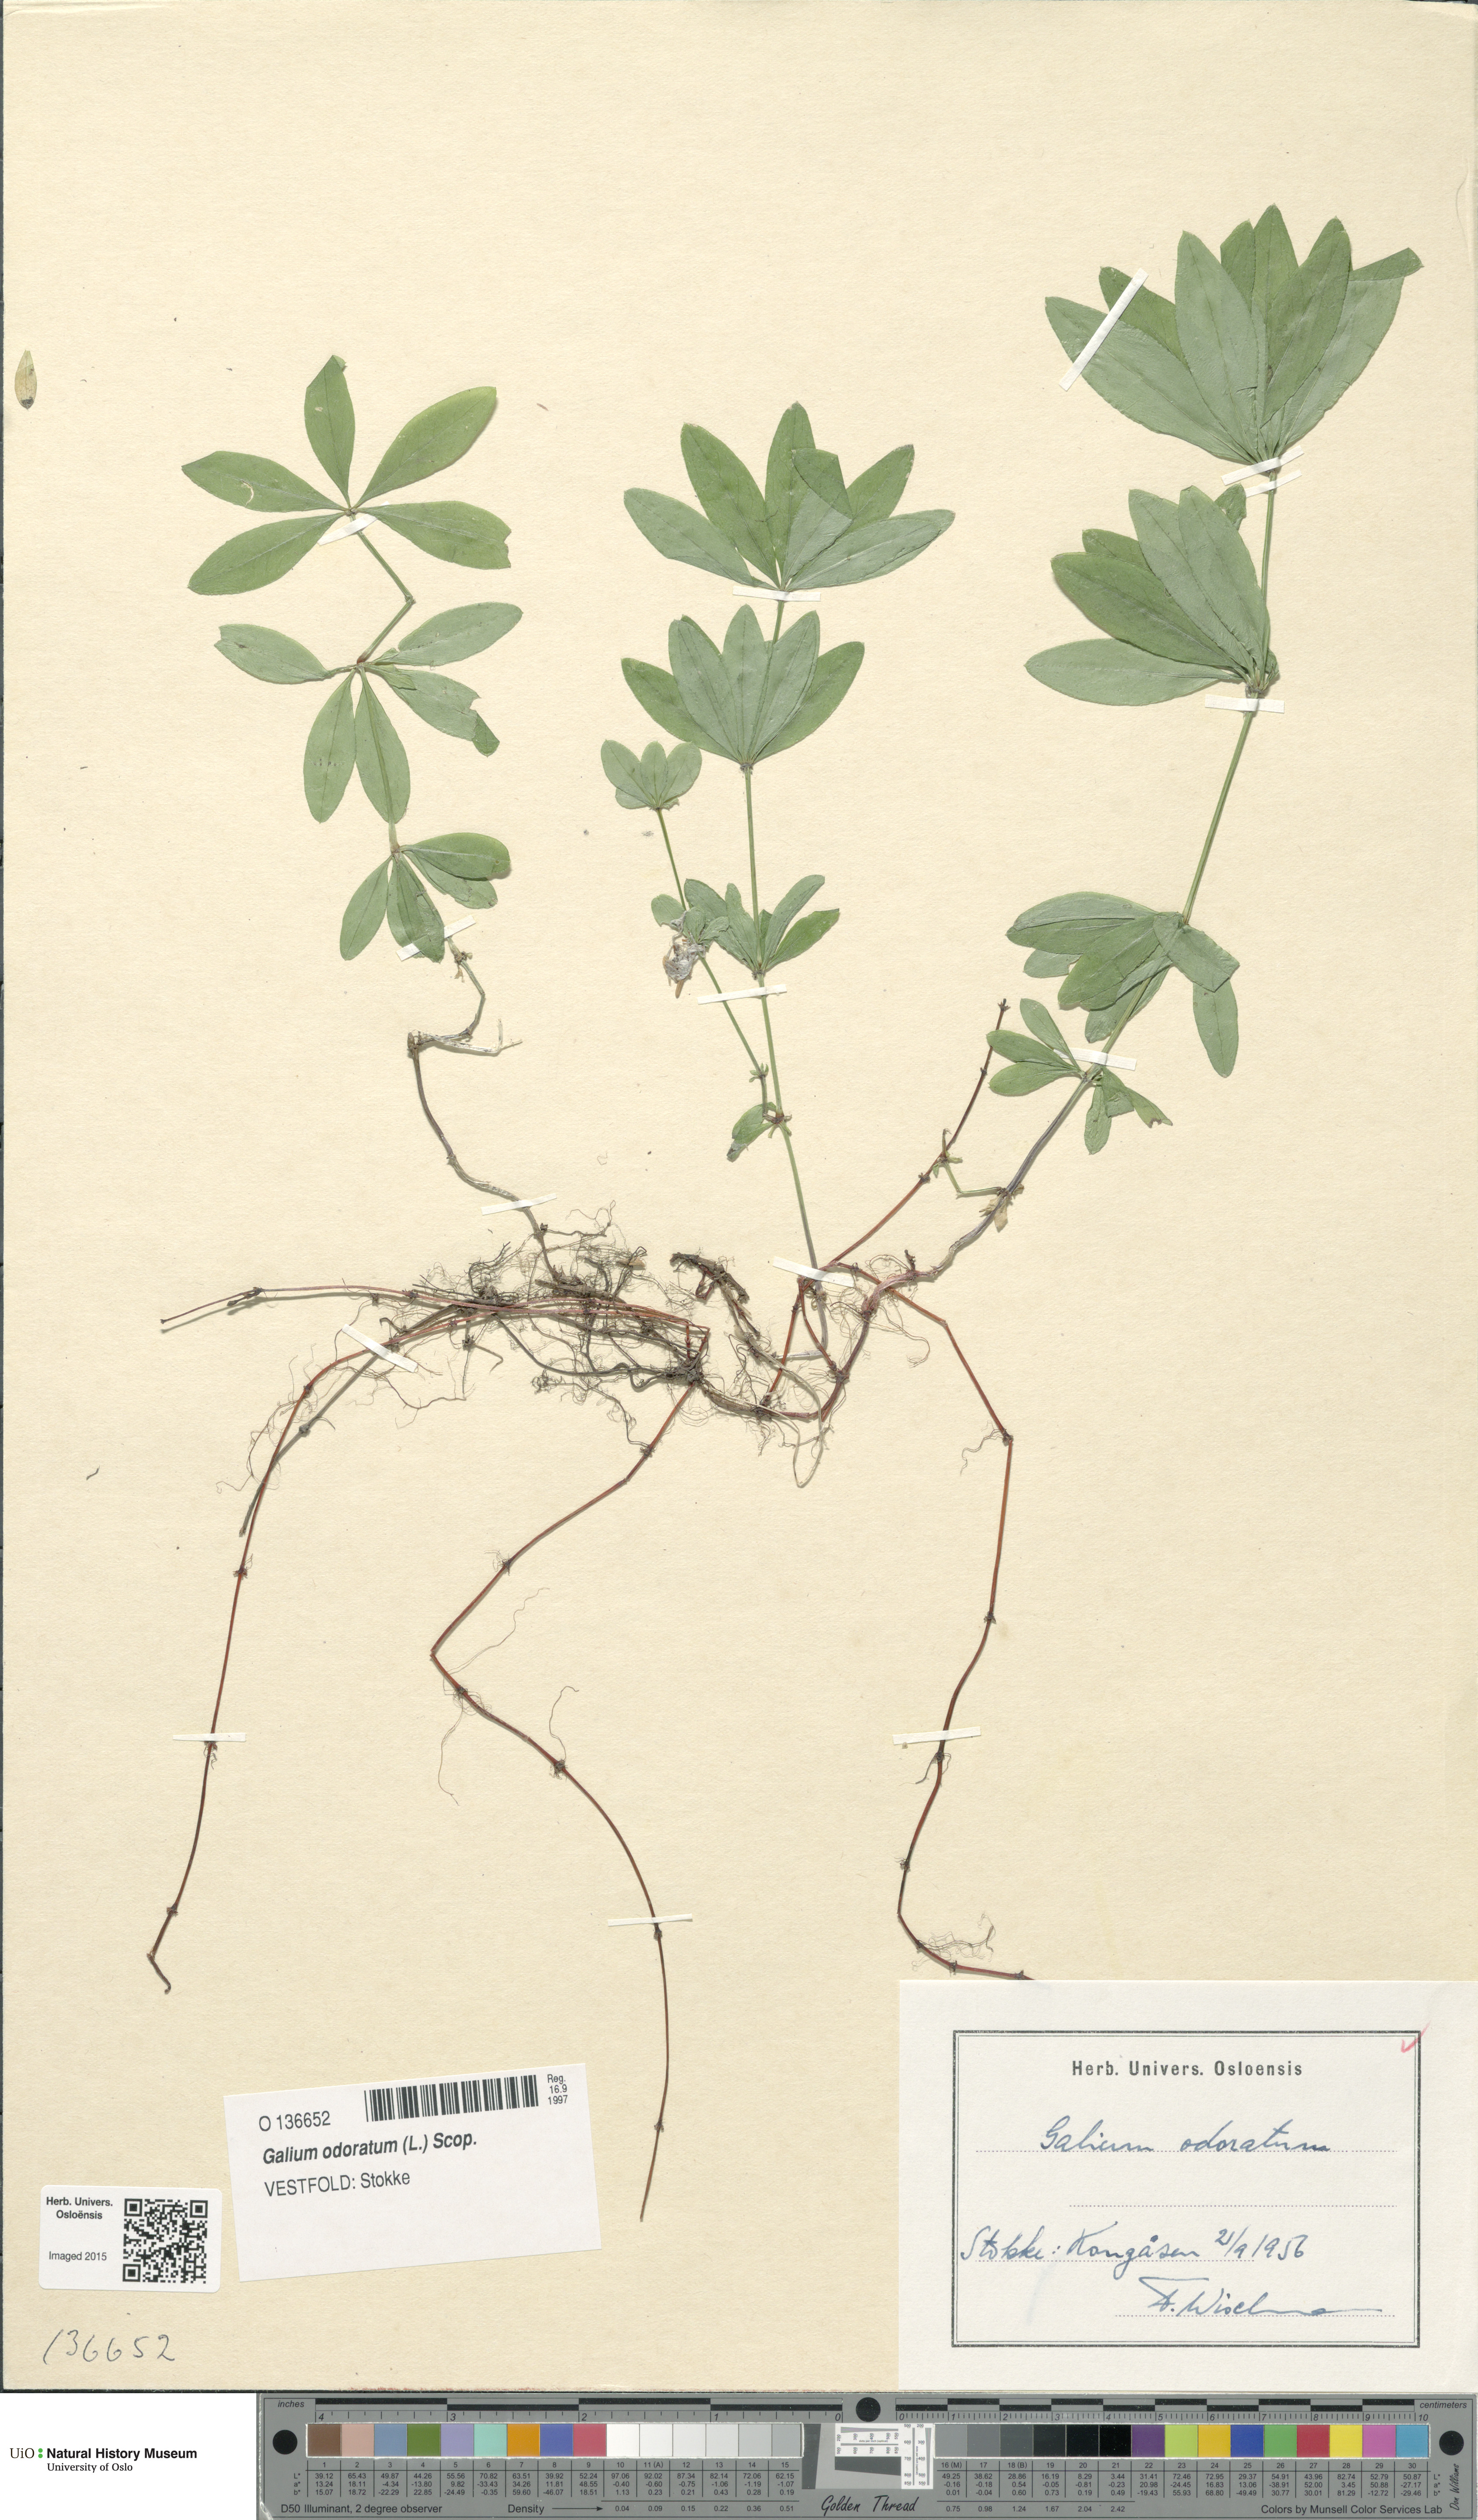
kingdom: Plantae
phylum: Tracheophyta
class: Magnoliopsida
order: Gentianales
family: Rubiaceae
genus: Galium
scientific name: Galium odoratum
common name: Sweet woodruff
